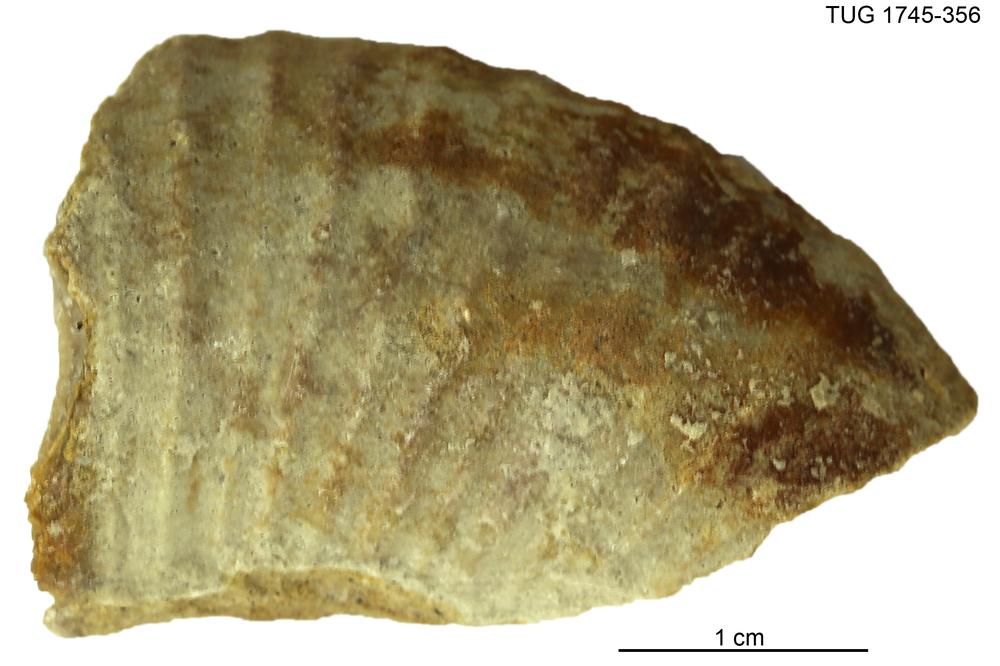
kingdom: Animalia
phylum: Mollusca
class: Cephalopoda
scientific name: Cephalopoda
